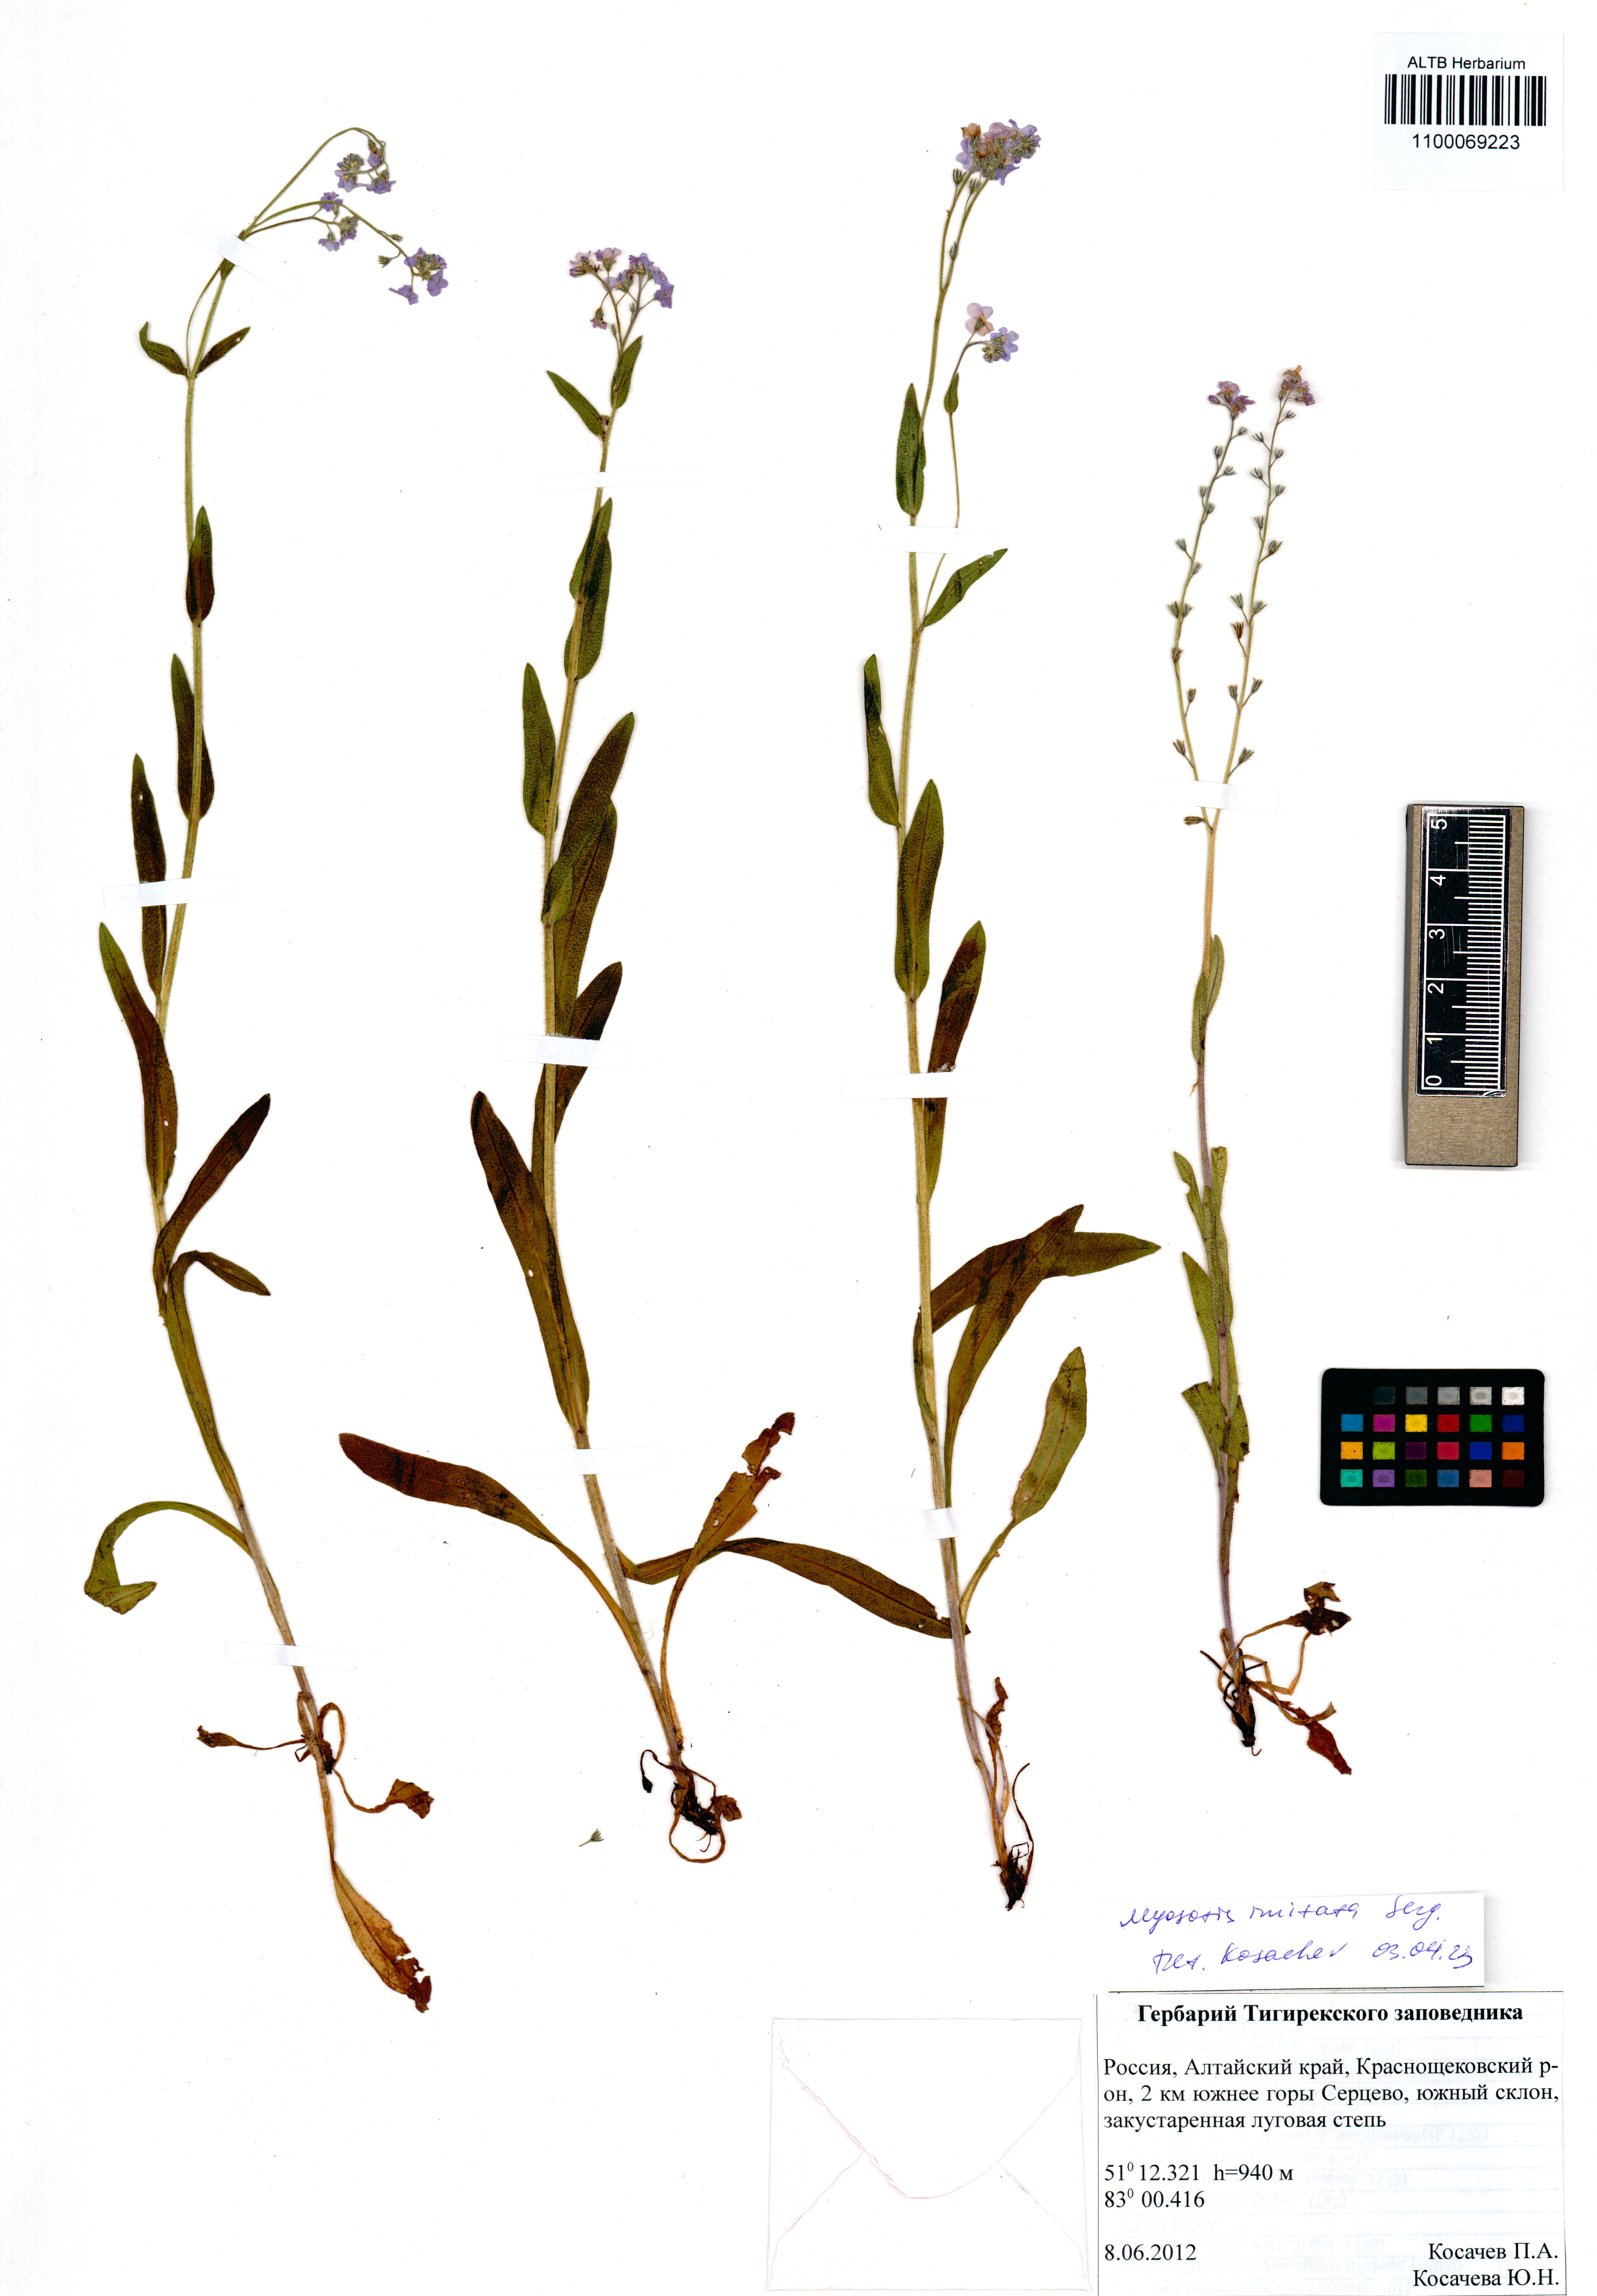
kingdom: Plantae
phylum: Tracheophyta
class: Magnoliopsida
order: Boraginales
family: Boraginaceae
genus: Myosotis
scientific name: Myosotis imitata
